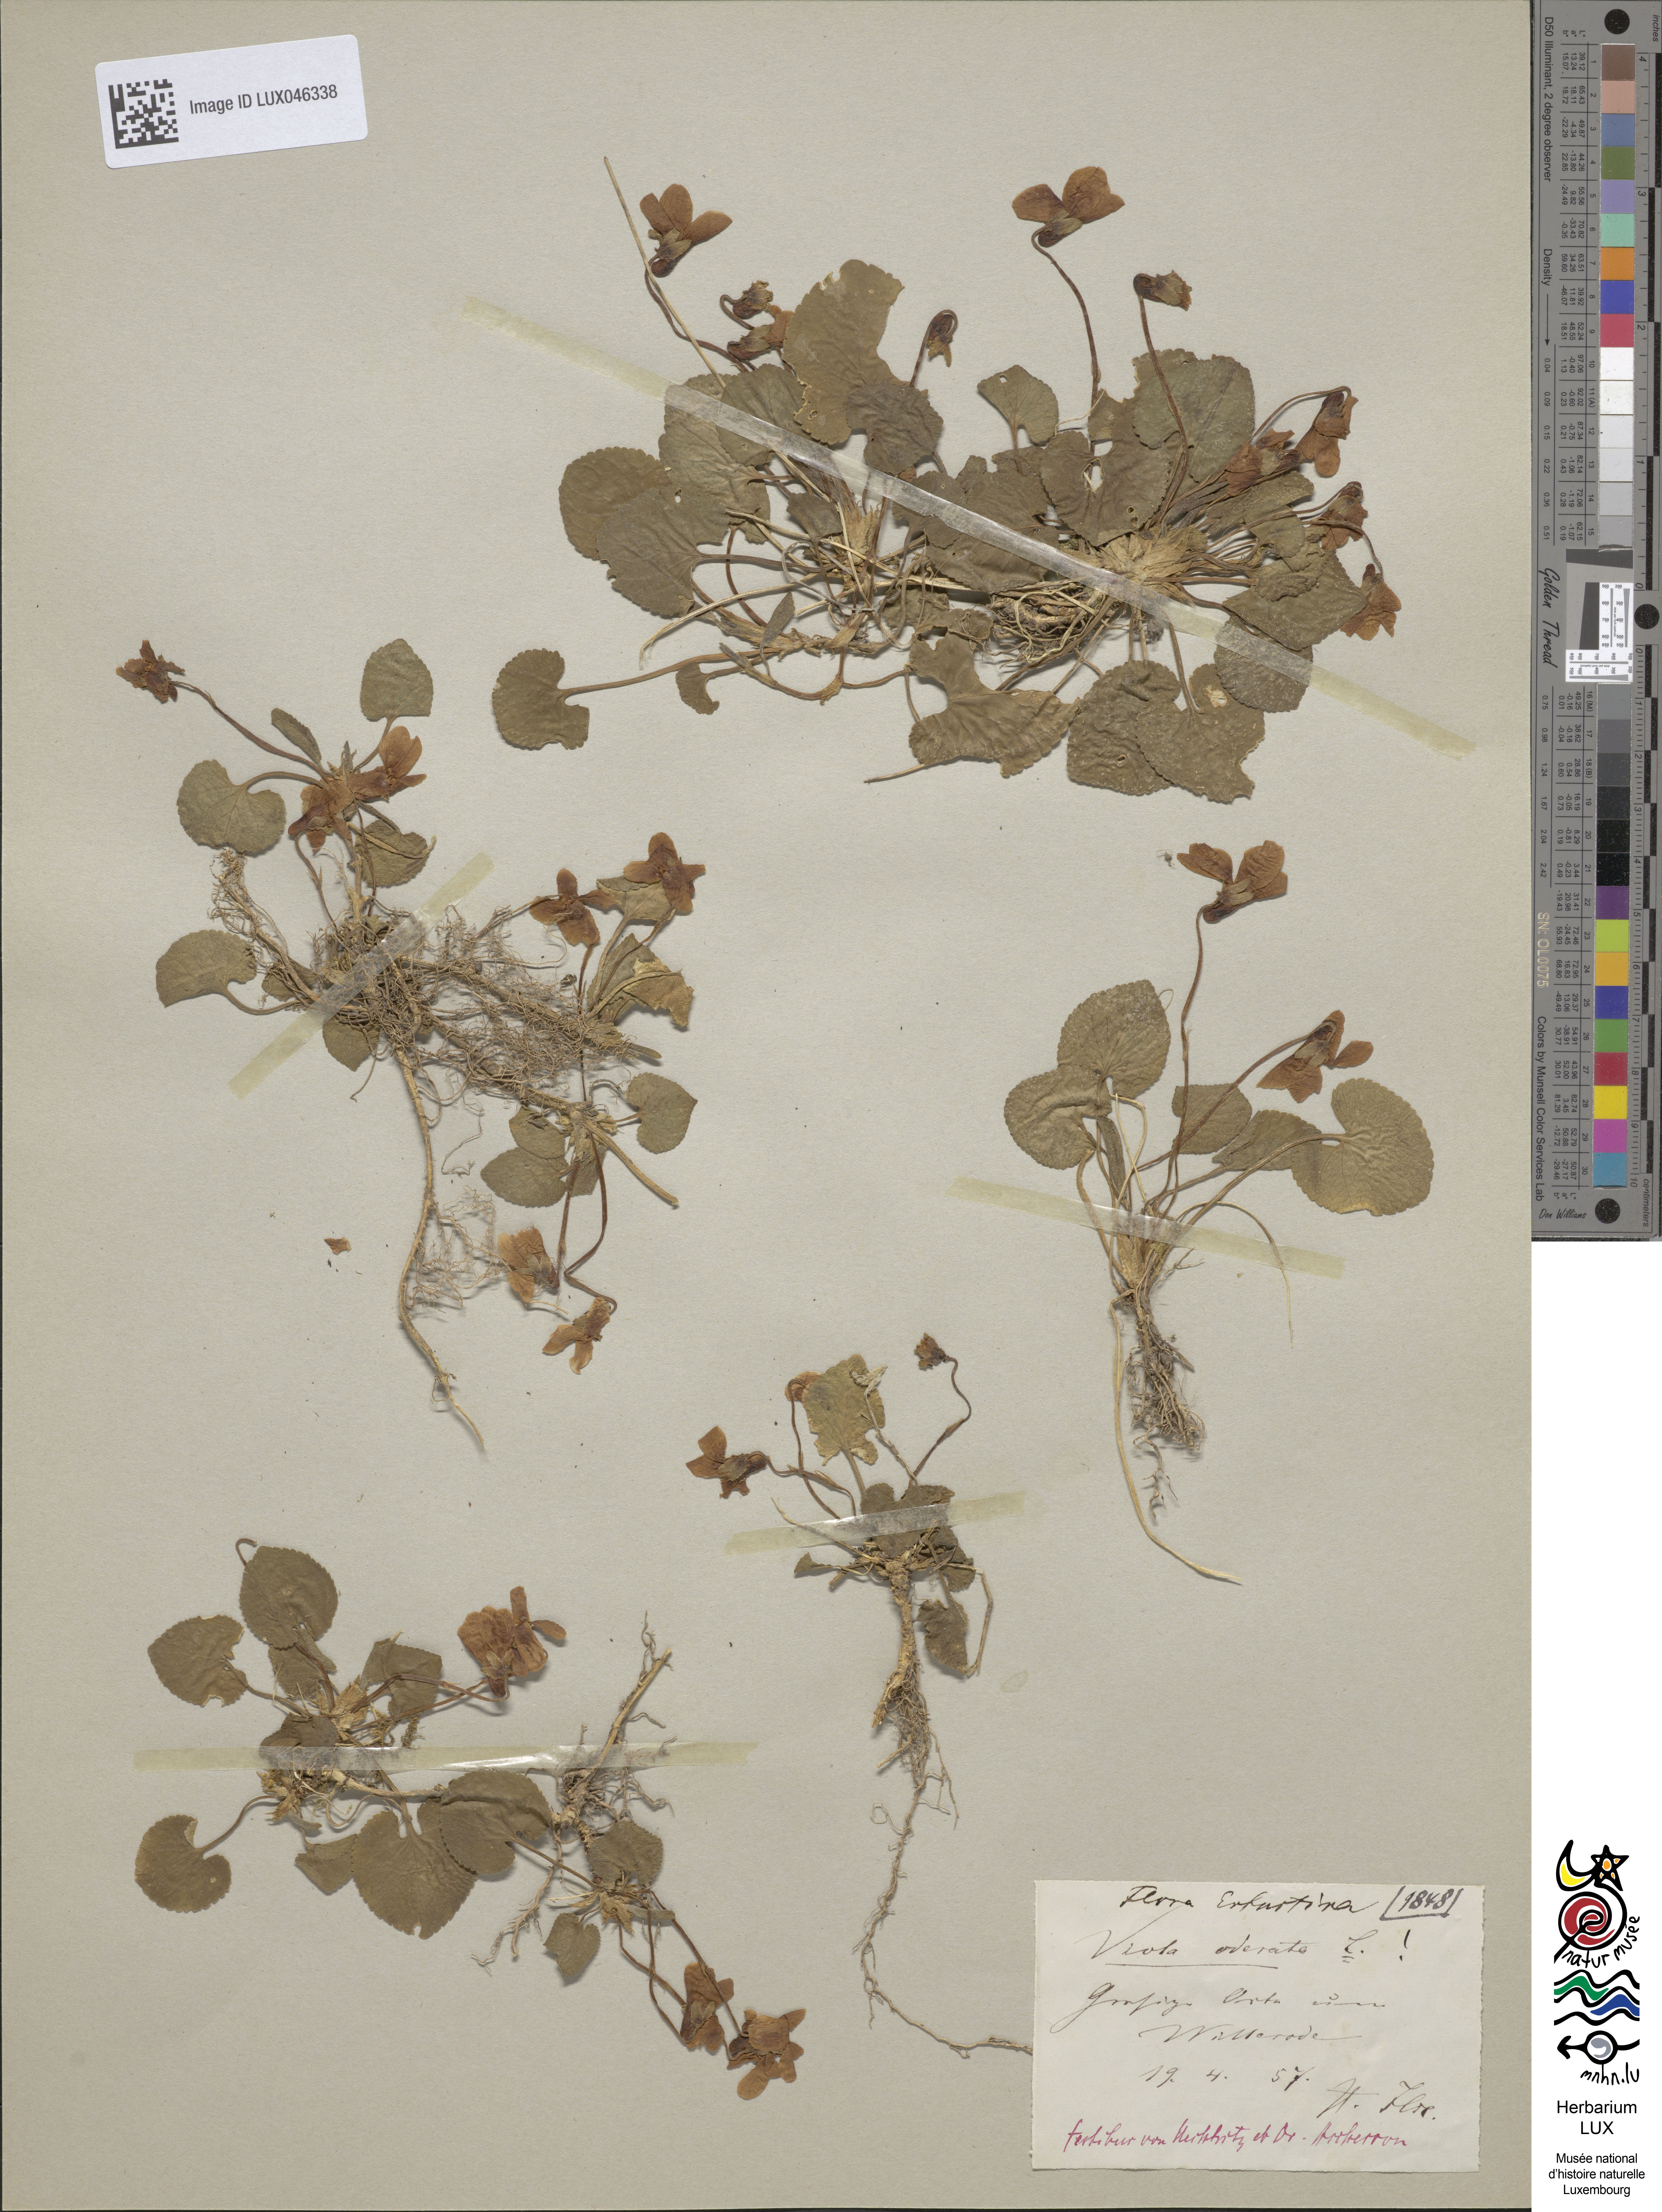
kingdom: Plantae
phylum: Tracheophyta
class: Magnoliopsida
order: Malpighiales
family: Violaceae
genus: Viola
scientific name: Viola odorata
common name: Sweet violet
